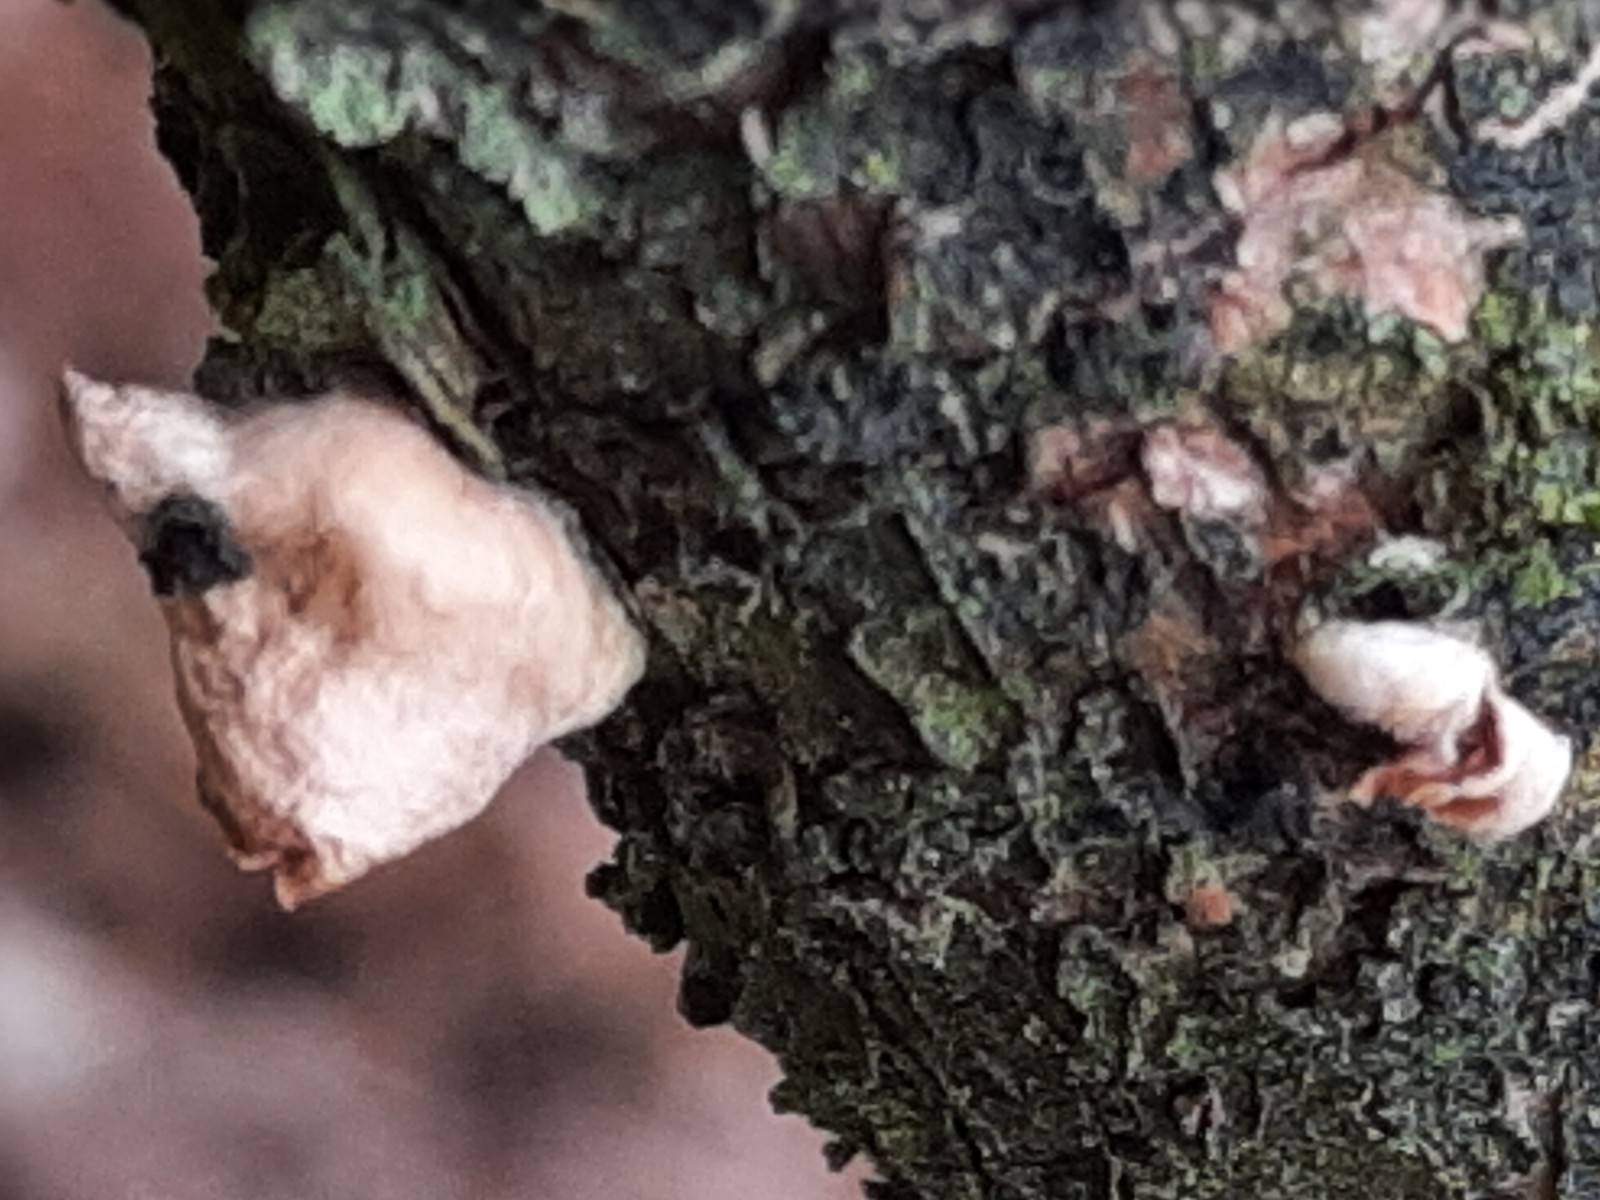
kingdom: Fungi
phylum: Basidiomycota
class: Agaricomycetes
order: Agaricales
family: Mycenaceae
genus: Panellus
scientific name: Panellus mitis
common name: mild epaulethat
